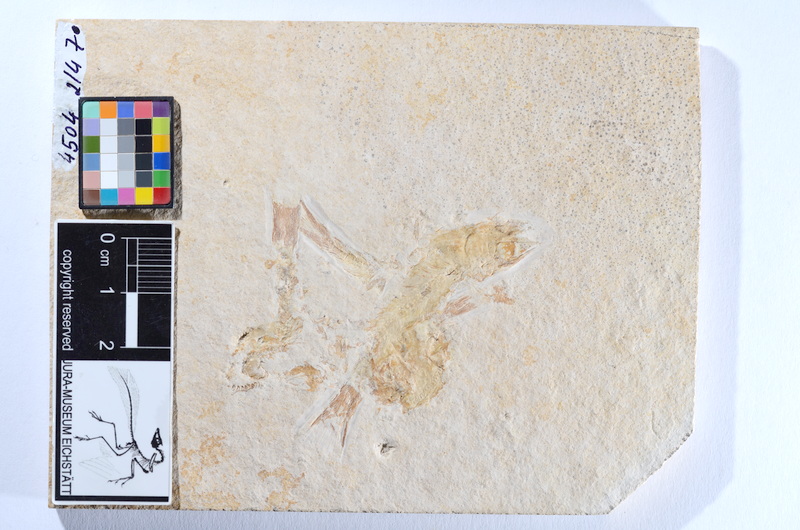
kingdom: Animalia
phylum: Chordata
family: Ascalaboidae
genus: Tharsis
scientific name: Tharsis dubius
